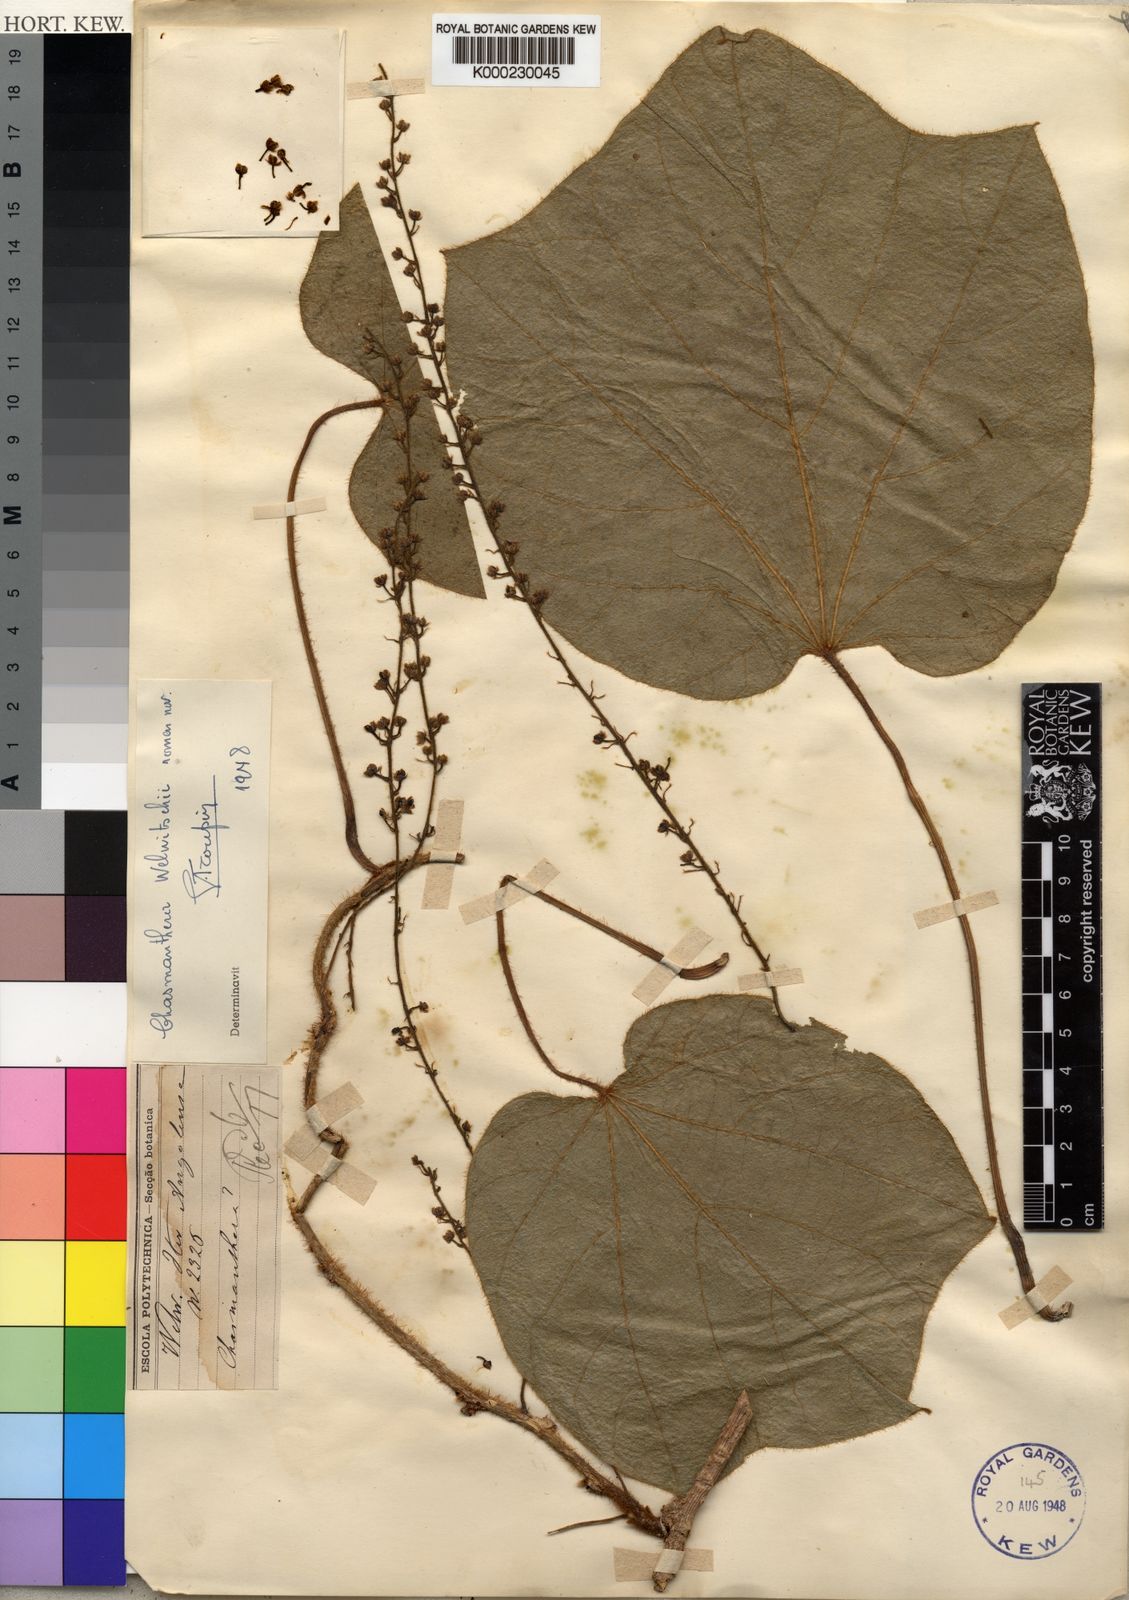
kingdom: Plantae
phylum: Tracheophyta
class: Magnoliopsida
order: Ranunculales
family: Menispermaceae
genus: Chasmanthera
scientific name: Chasmanthera welwitschii
